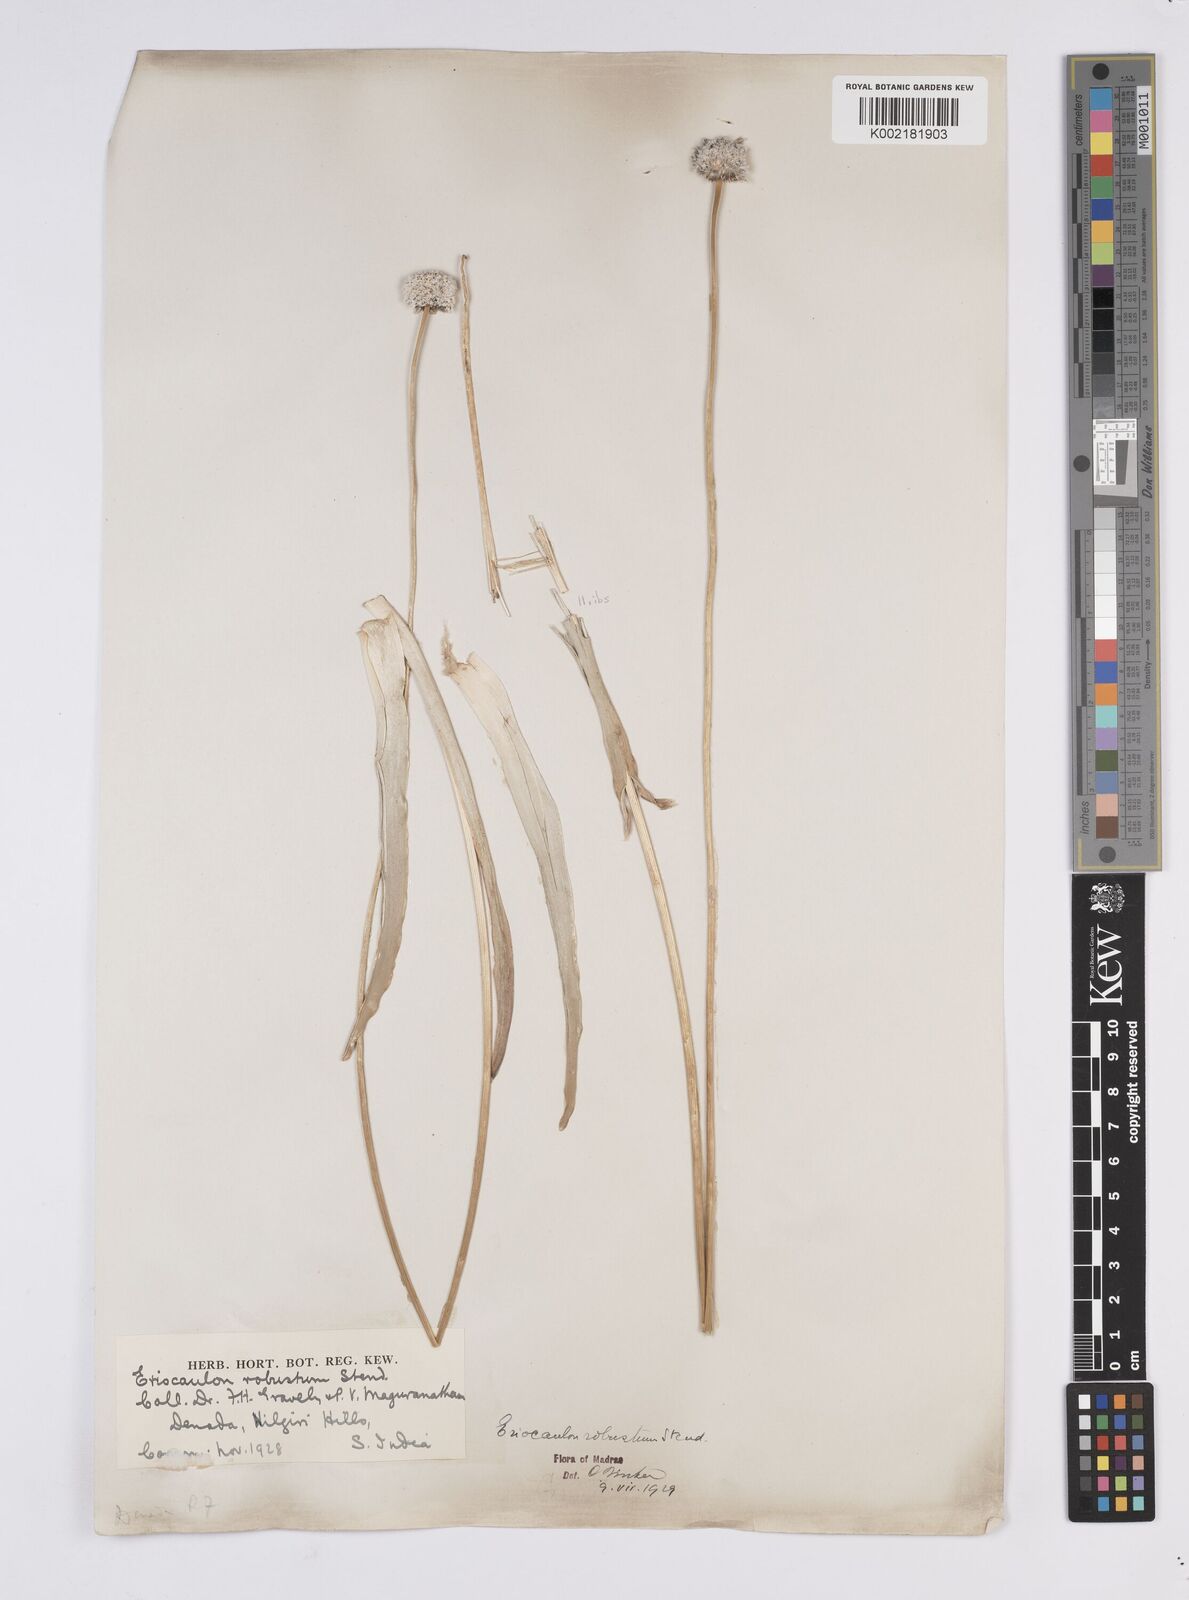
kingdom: Plantae
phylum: Tracheophyta
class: Liliopsida
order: Poales
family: Eriocaulaceae
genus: Eriocaulon
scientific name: Eriocaulon robustum
